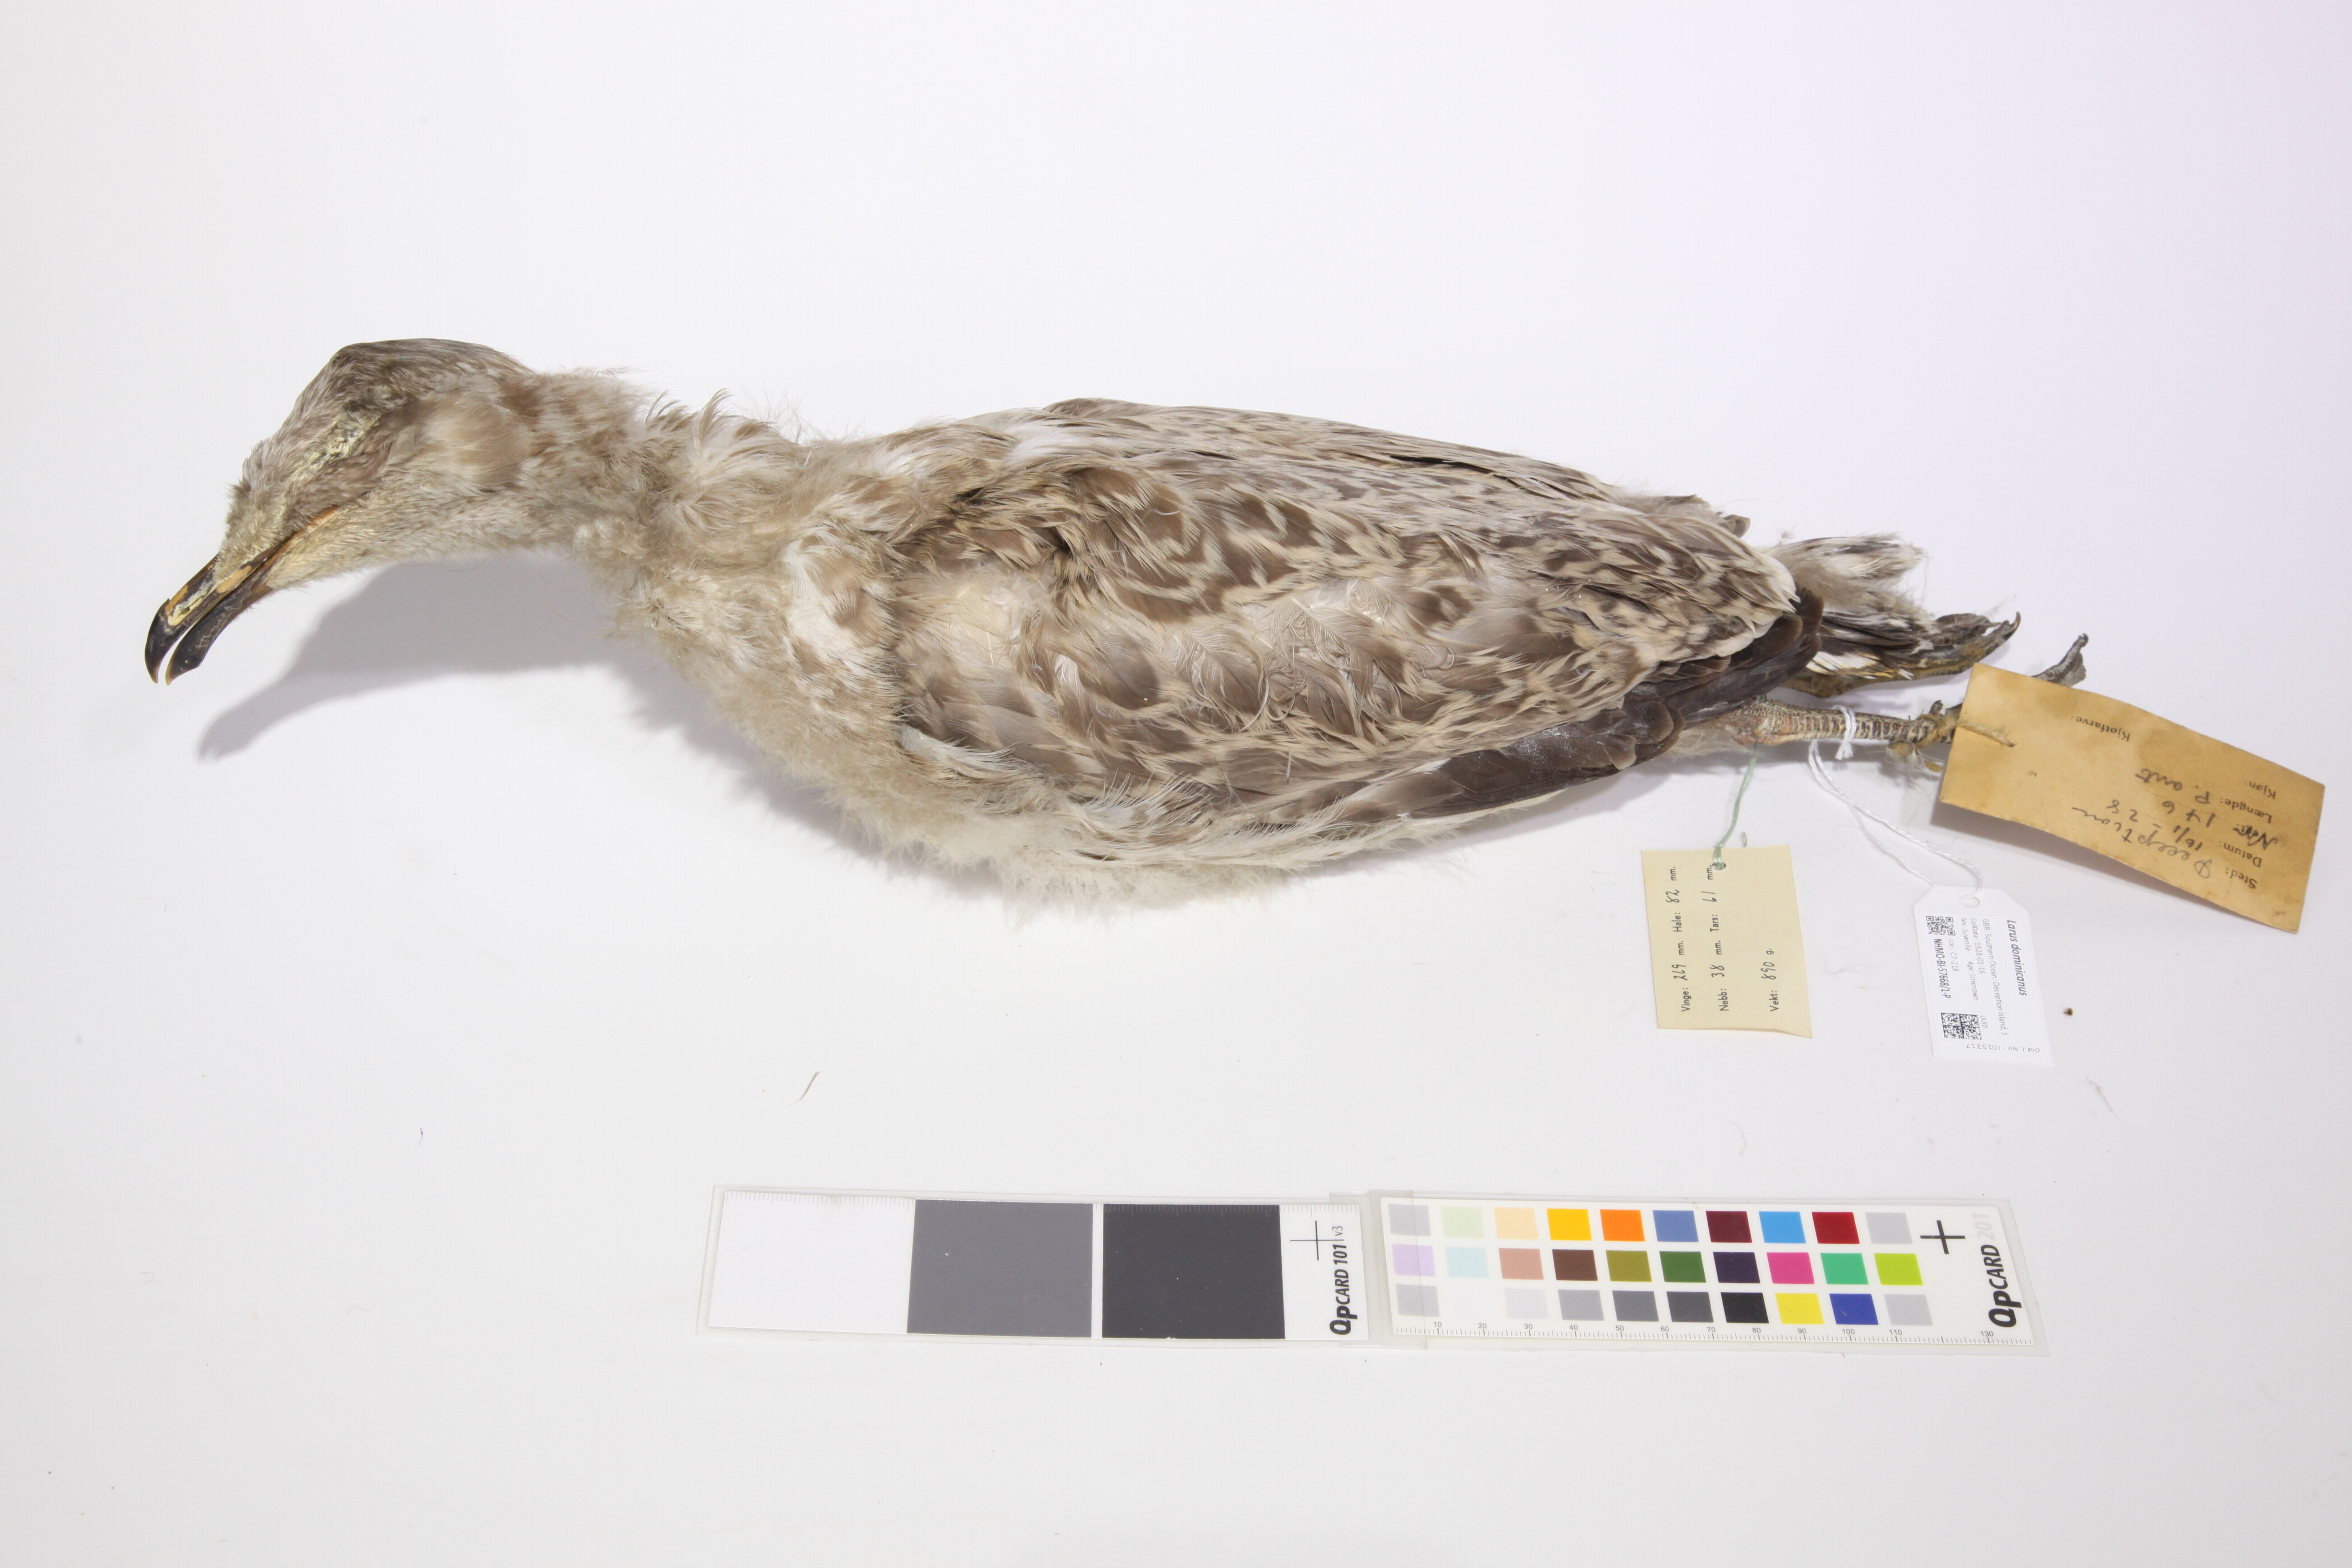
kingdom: Animalia
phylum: Chordata
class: Aves
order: Charadriiformes
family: Laridae
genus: Larus
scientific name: Larus dominicanus
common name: Kelp gull
